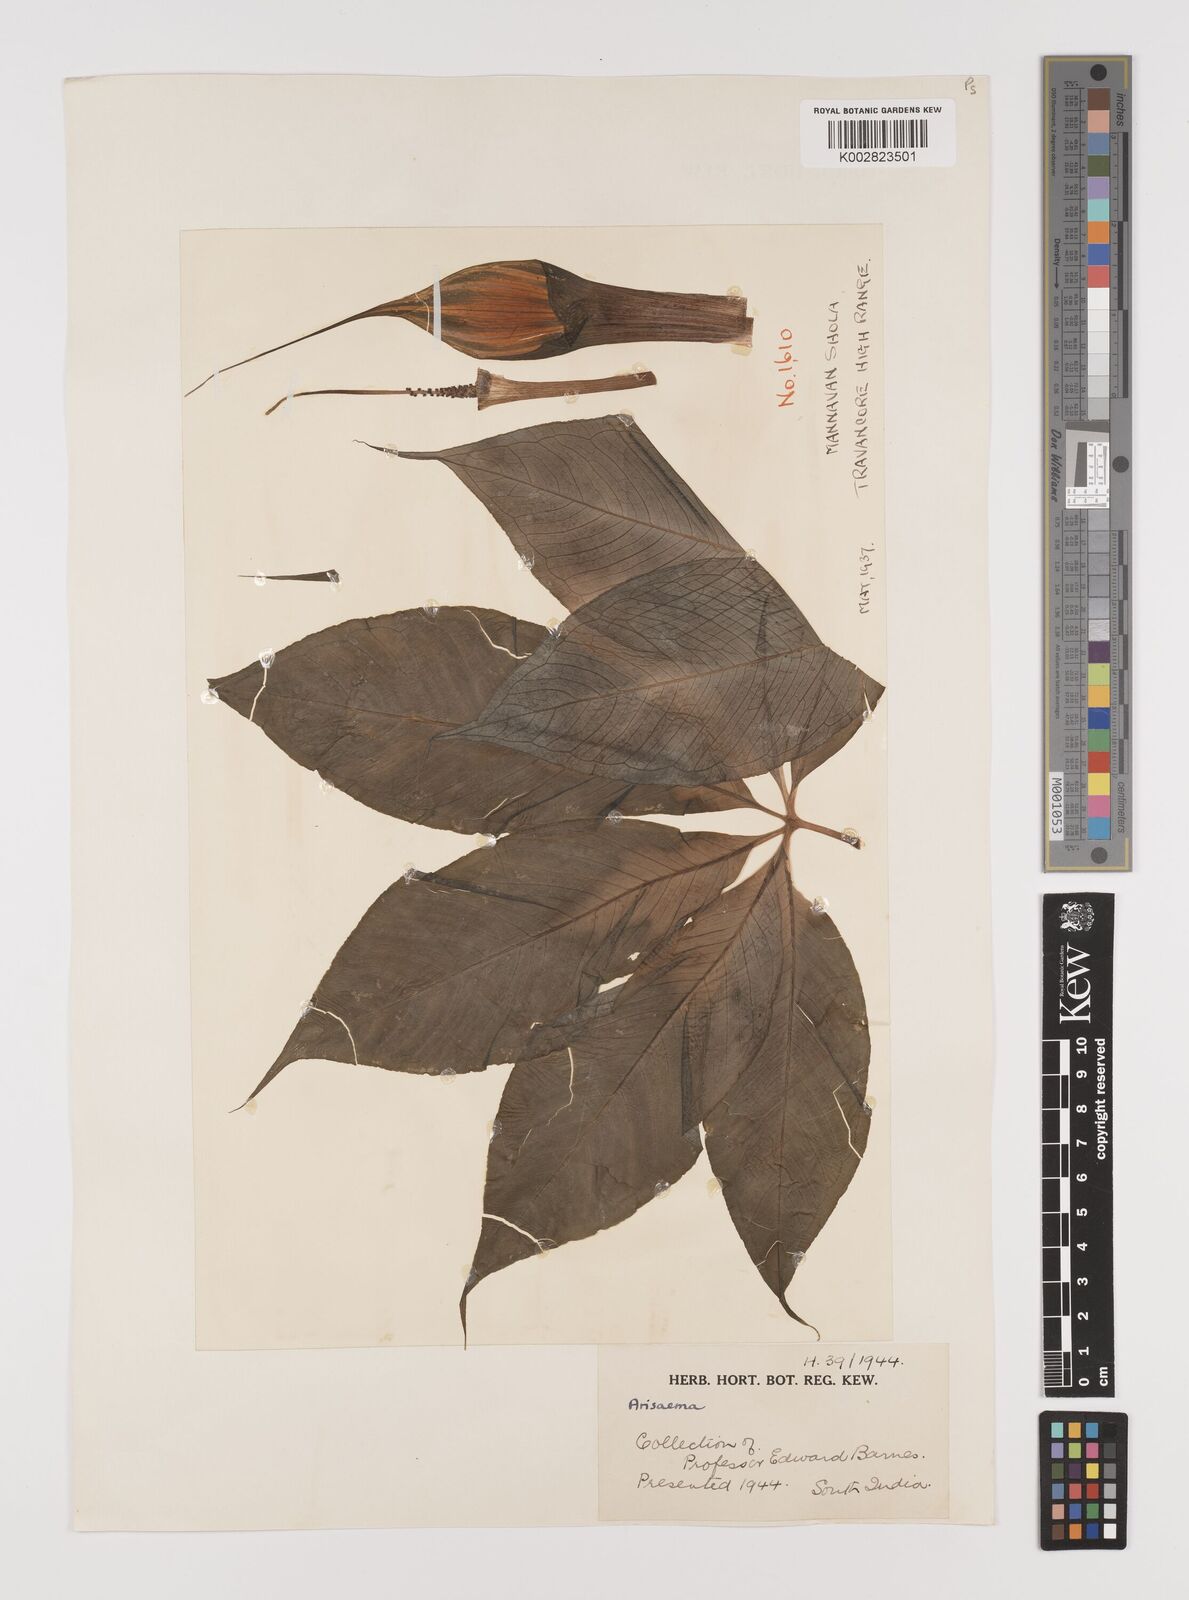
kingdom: Plantae
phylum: Tracheophyta
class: Liliopsida
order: Alismatales
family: Araceae
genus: Arisaema
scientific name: Arisaema
